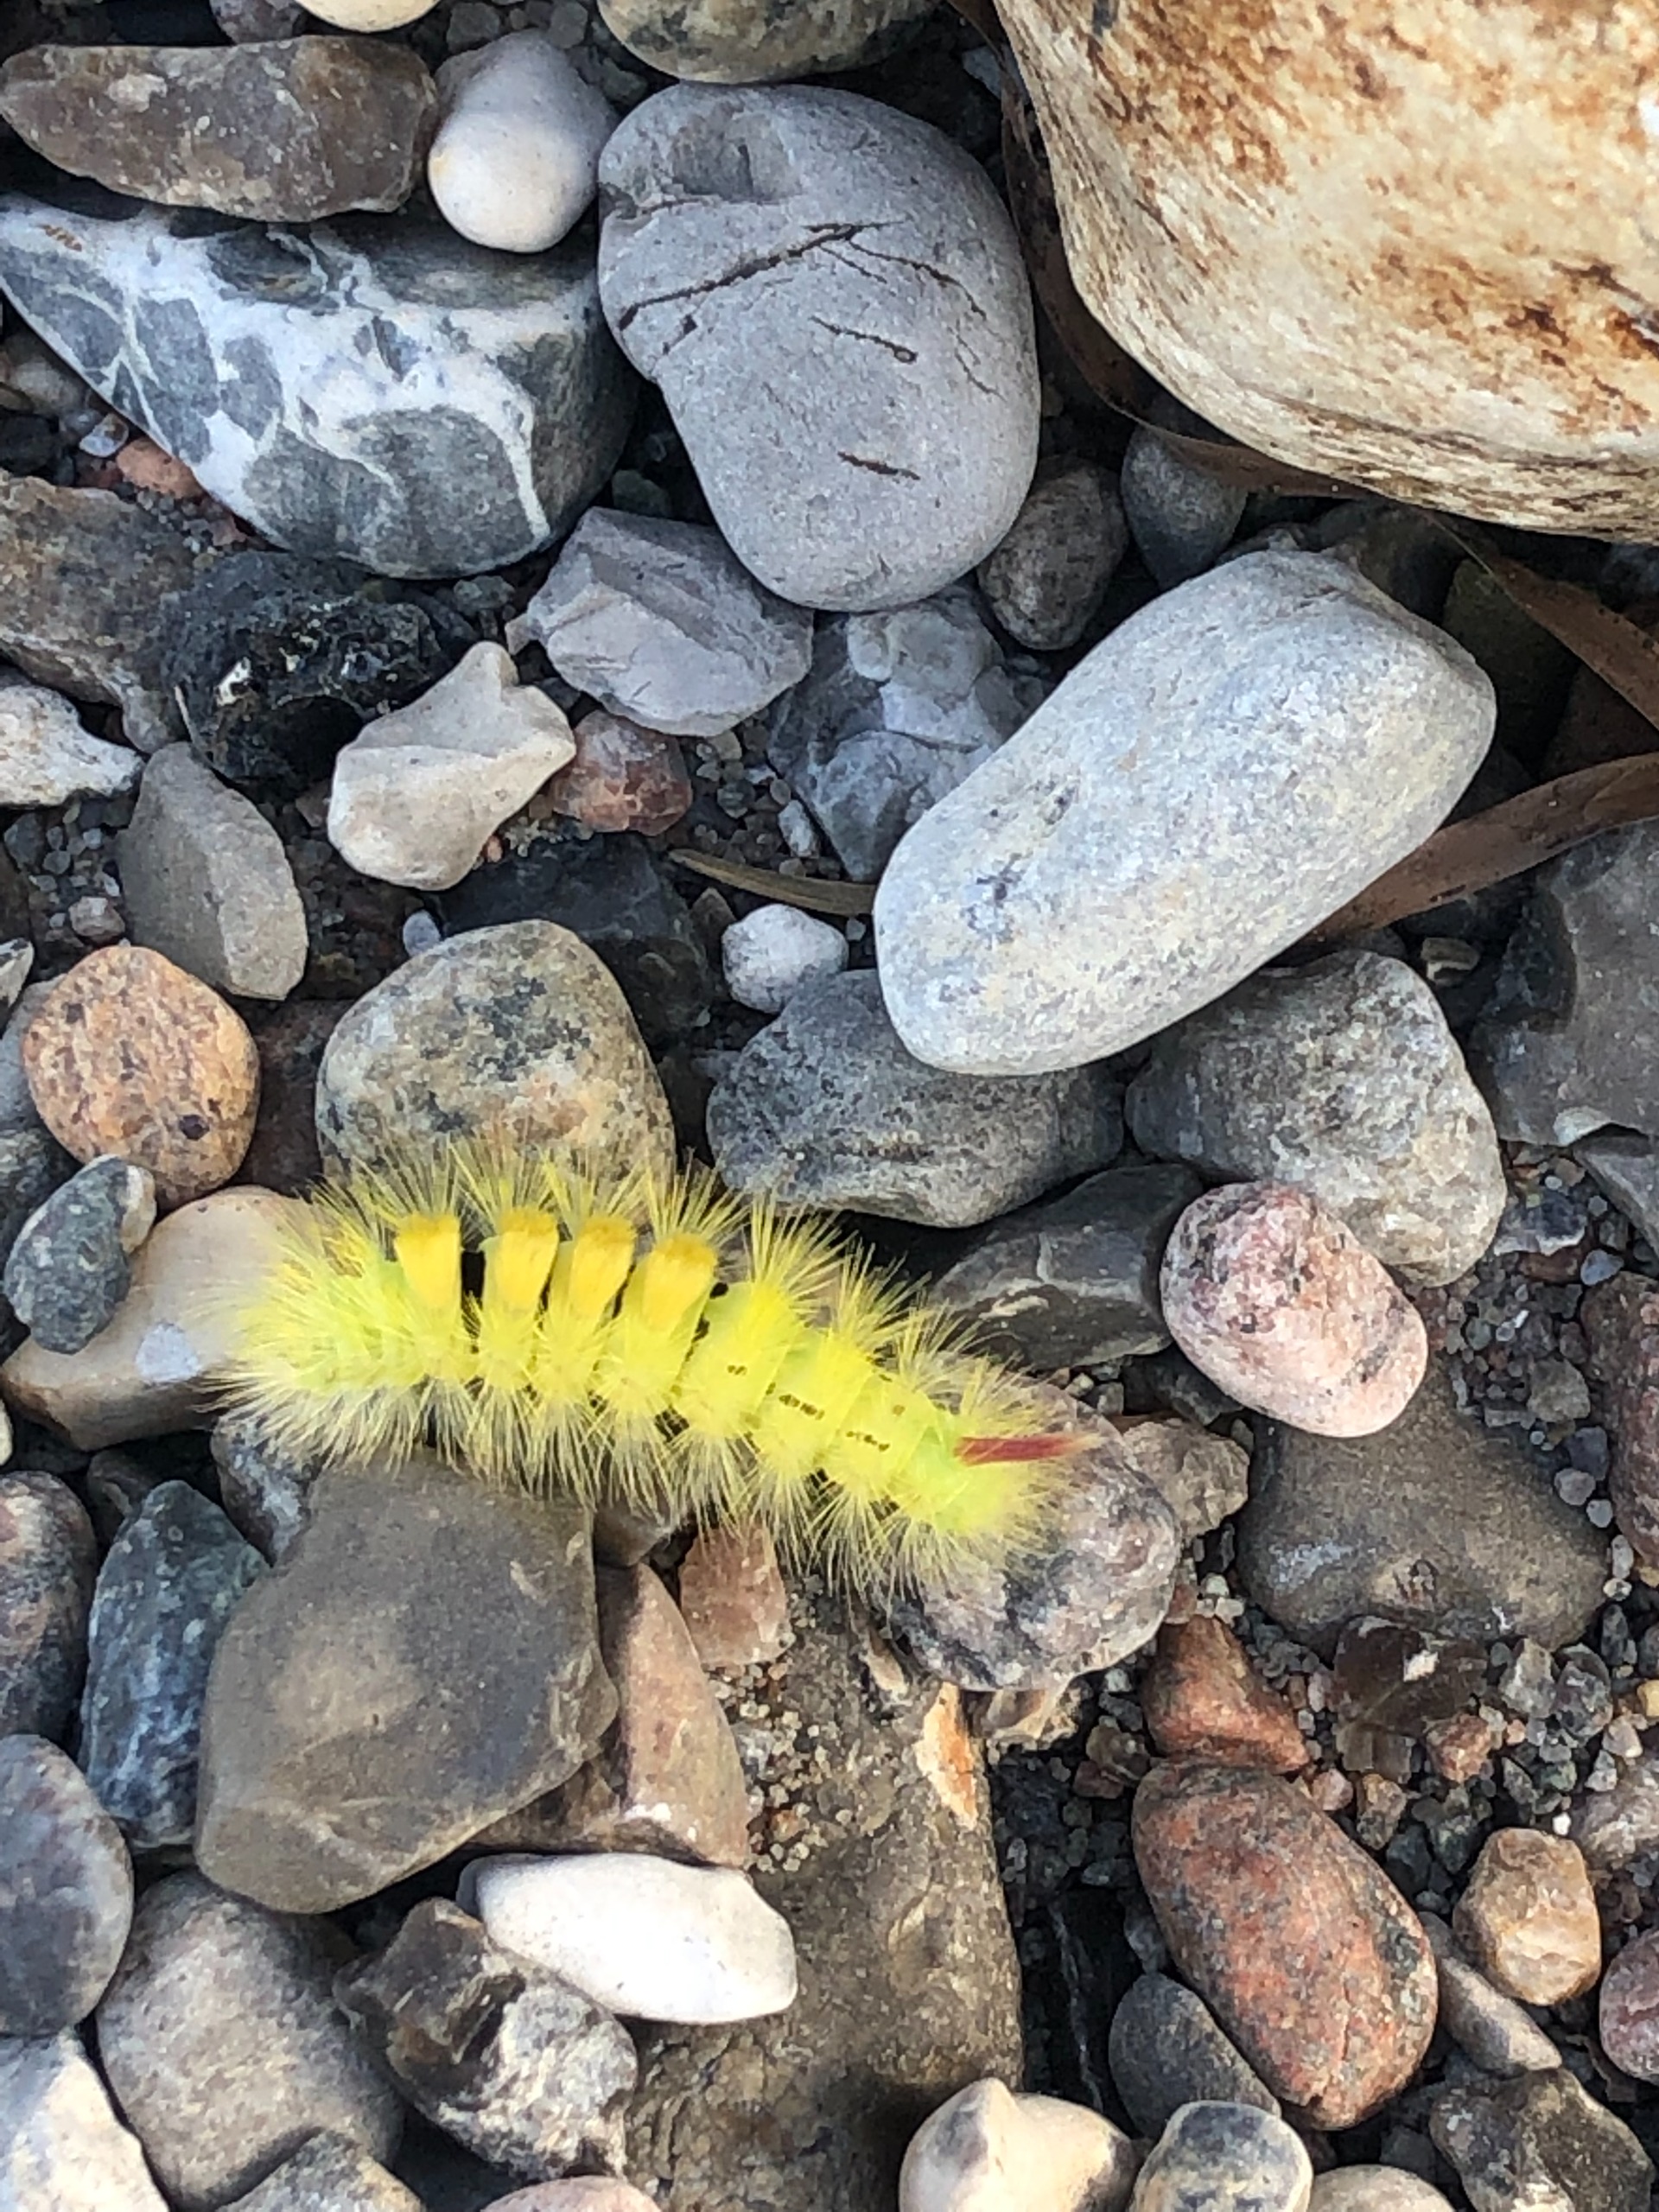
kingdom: Animalia
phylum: Arthropoda
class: Insecta
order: Lepidoptera
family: Erebidae
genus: Calliteara
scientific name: Calliteara pudibunda
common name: Bøgenonne
